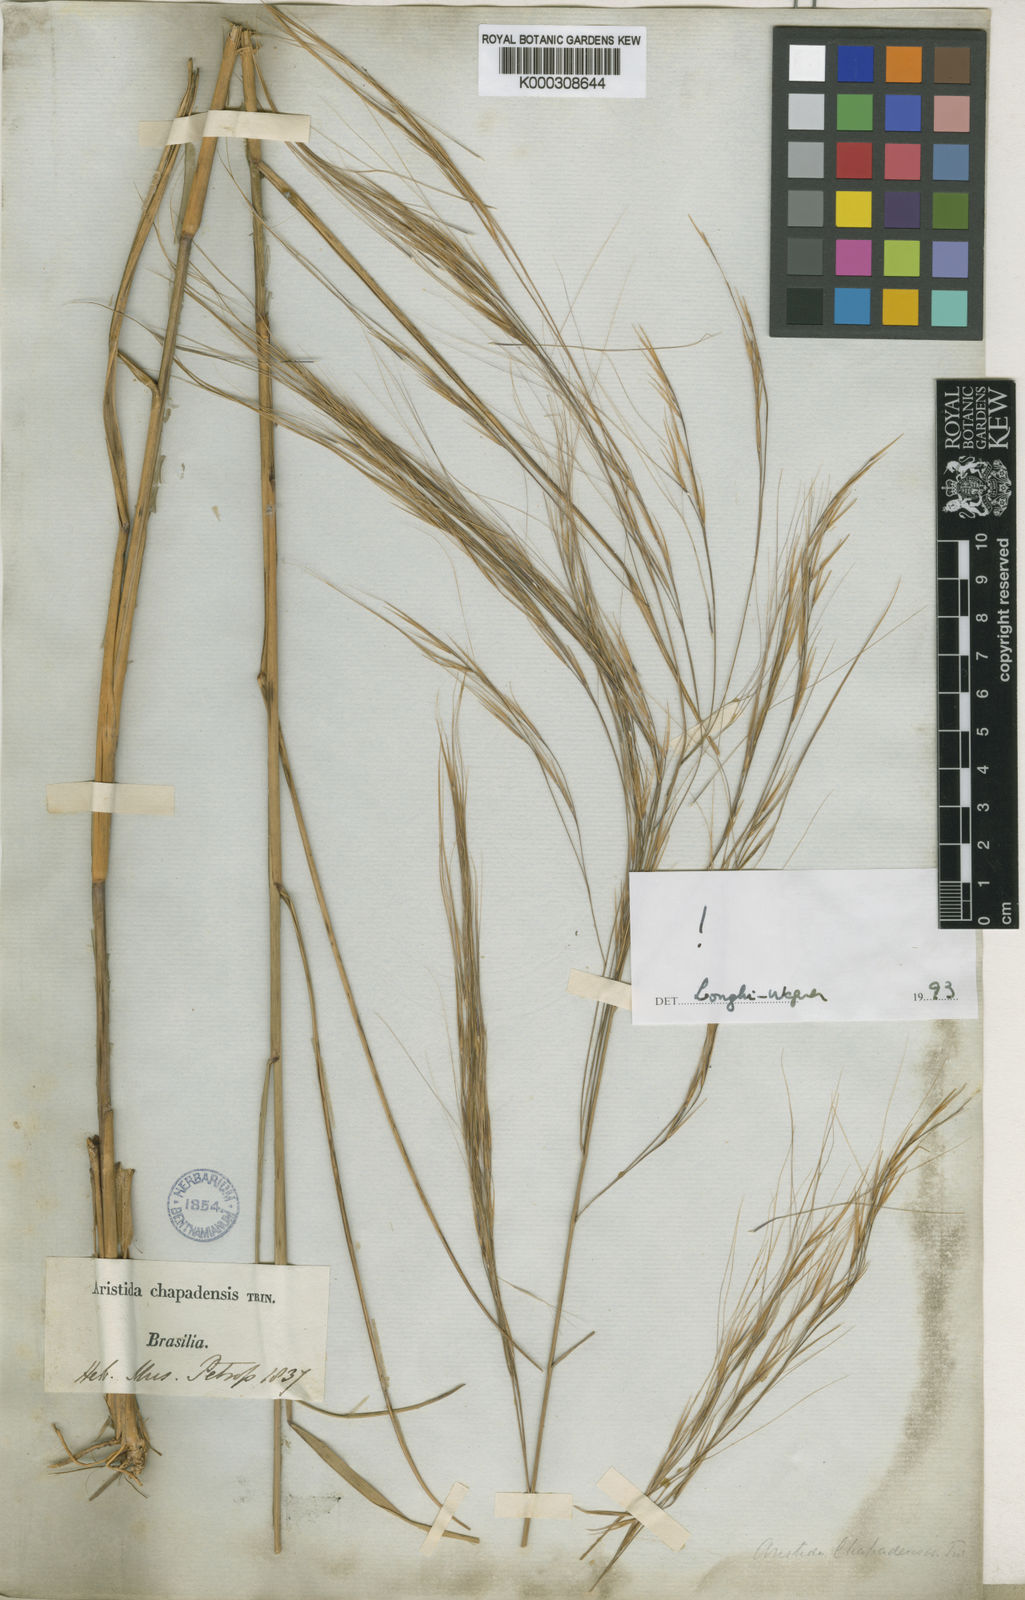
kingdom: Plantae
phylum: Tracheophyta
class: Liliopsida
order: Poales
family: Poaceae
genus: Aristida
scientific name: Aristida chapadensis
